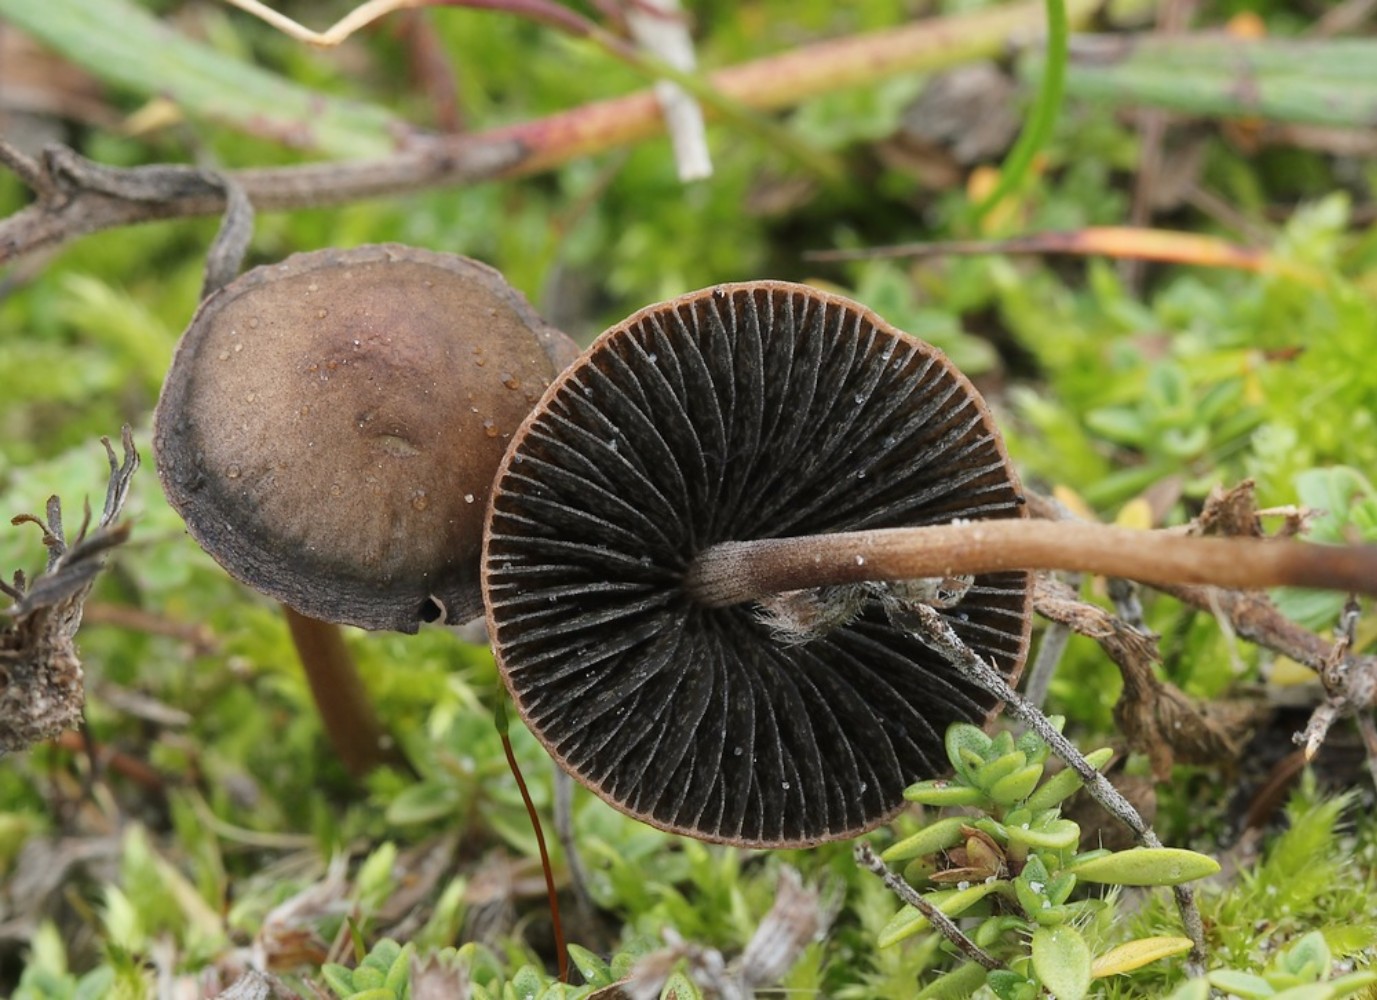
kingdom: Fungi
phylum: Basidiomycota
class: Agaricomycetes
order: Agaricales
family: Bolbitiaceae
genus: Panaeolus
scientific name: Panaeolus
